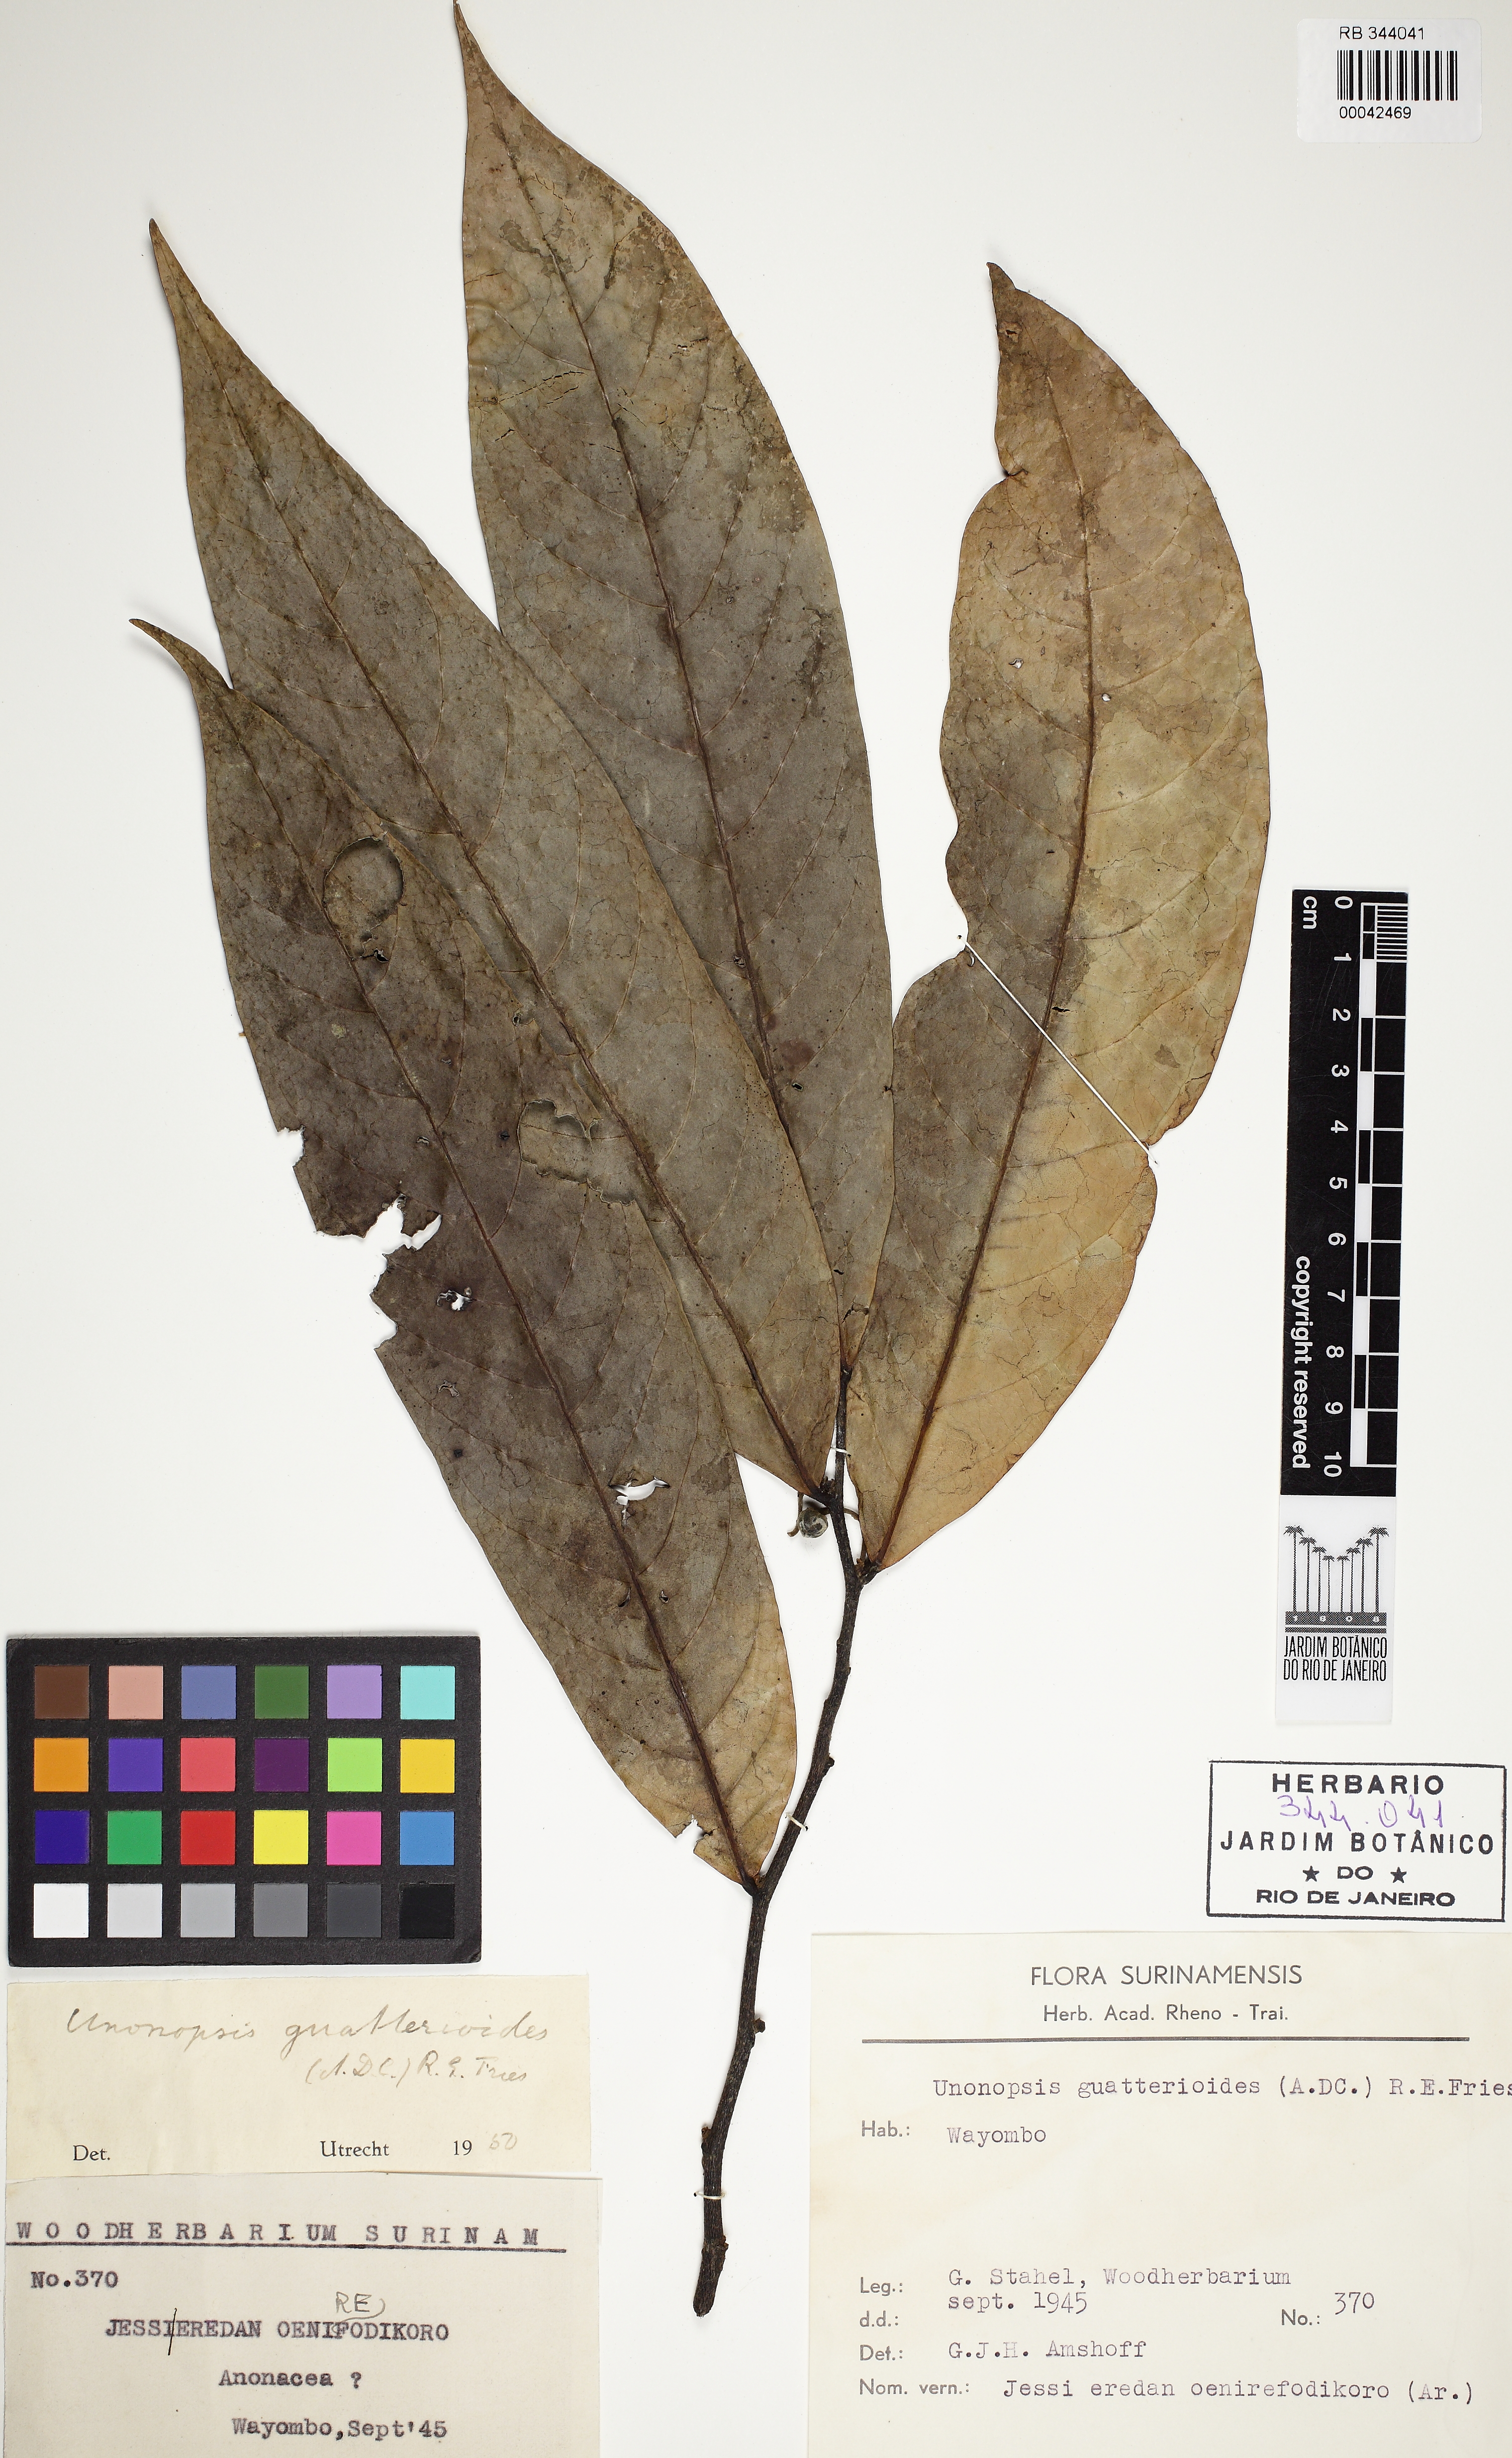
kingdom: Plantae
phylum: Tracheophyta
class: Magnoliopsida
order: Magnoliales
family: Annonaceae
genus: Unonopsis
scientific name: Unonopsis guatterioides
